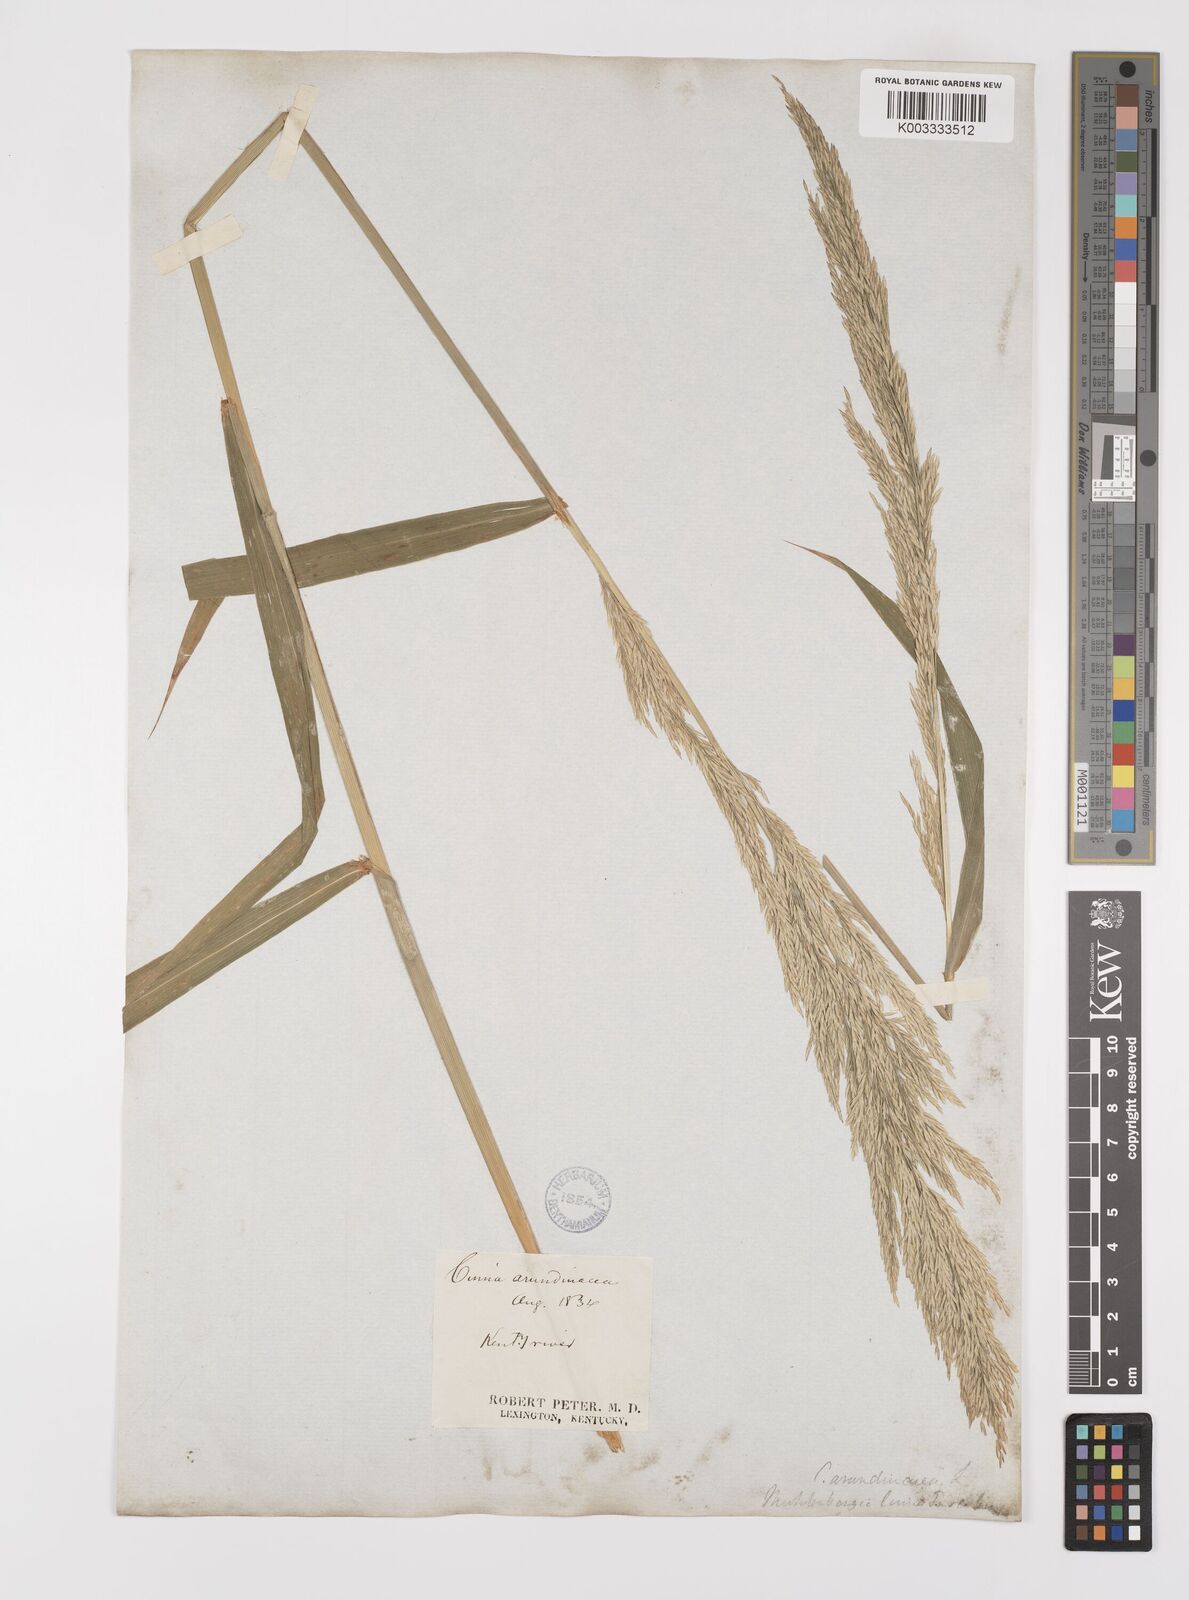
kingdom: Plantae
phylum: Tracheophyta
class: Liliopsida
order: Poales
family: Poaceae
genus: Cinna
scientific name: Cinna
